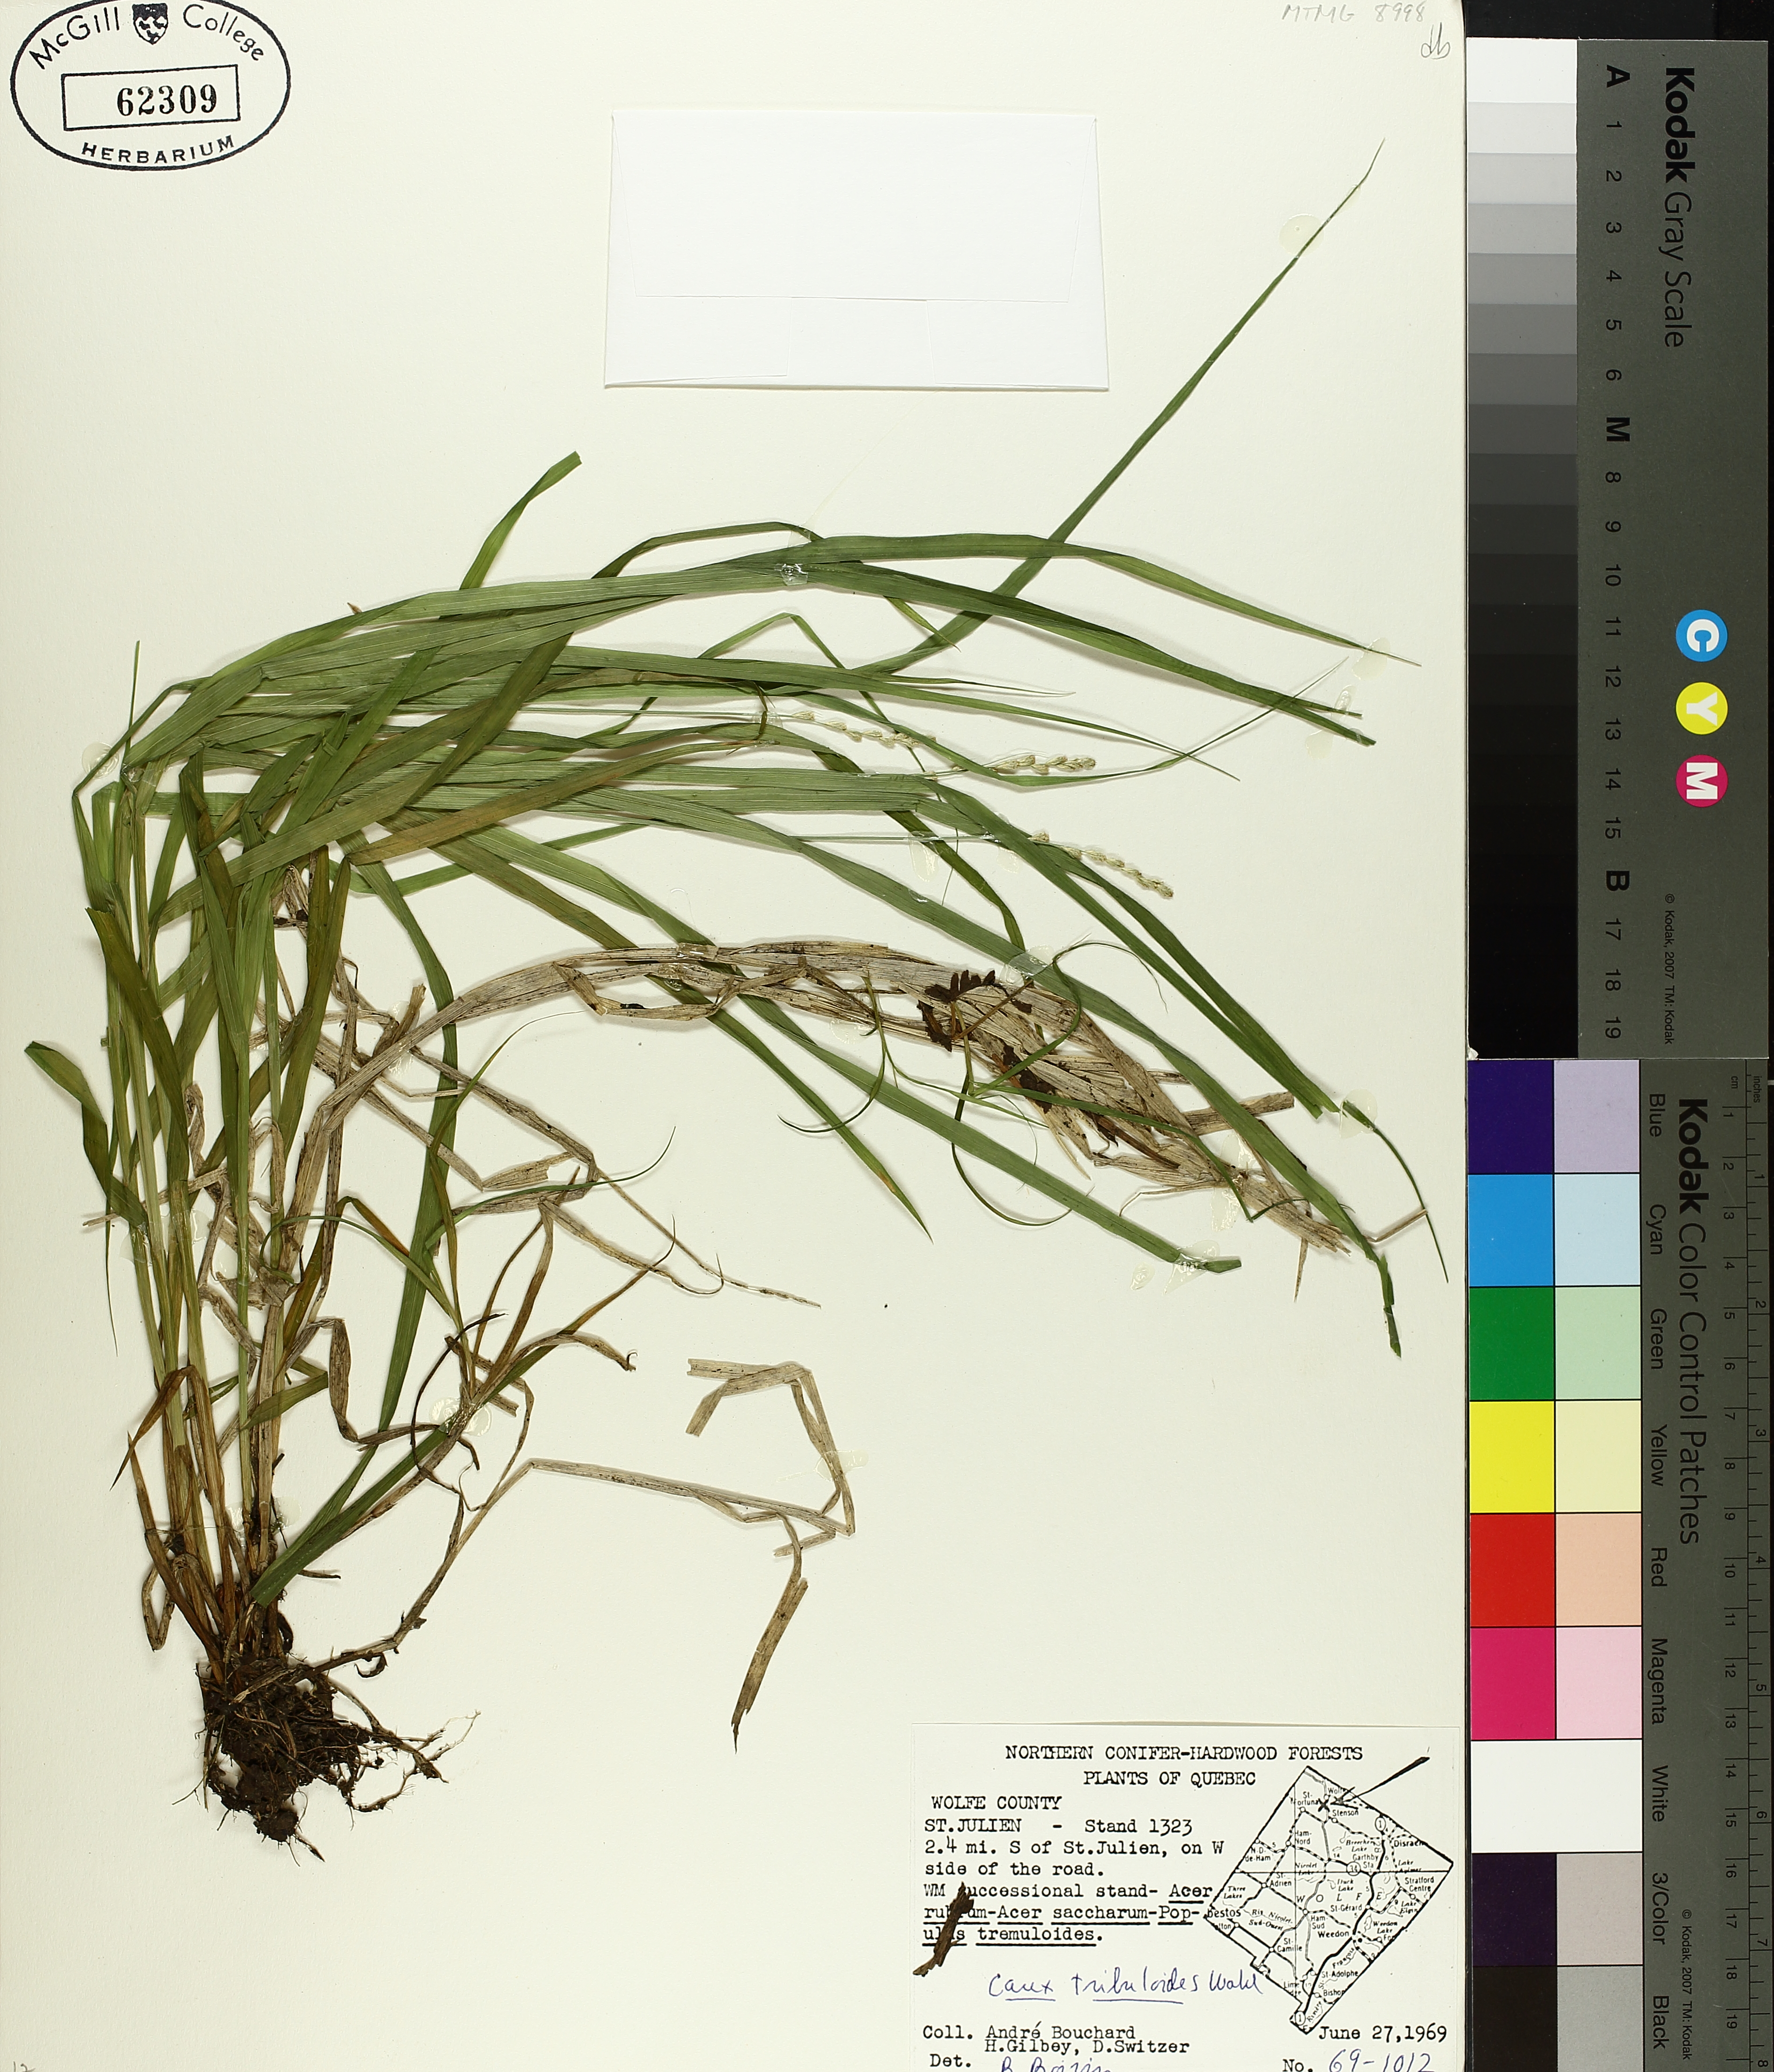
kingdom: Plantae
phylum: Tracheophyta
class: Liliopsida
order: Poales
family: Cyperaceae
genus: Carex
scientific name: Carex tribuloides
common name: Blunt broom sedge
